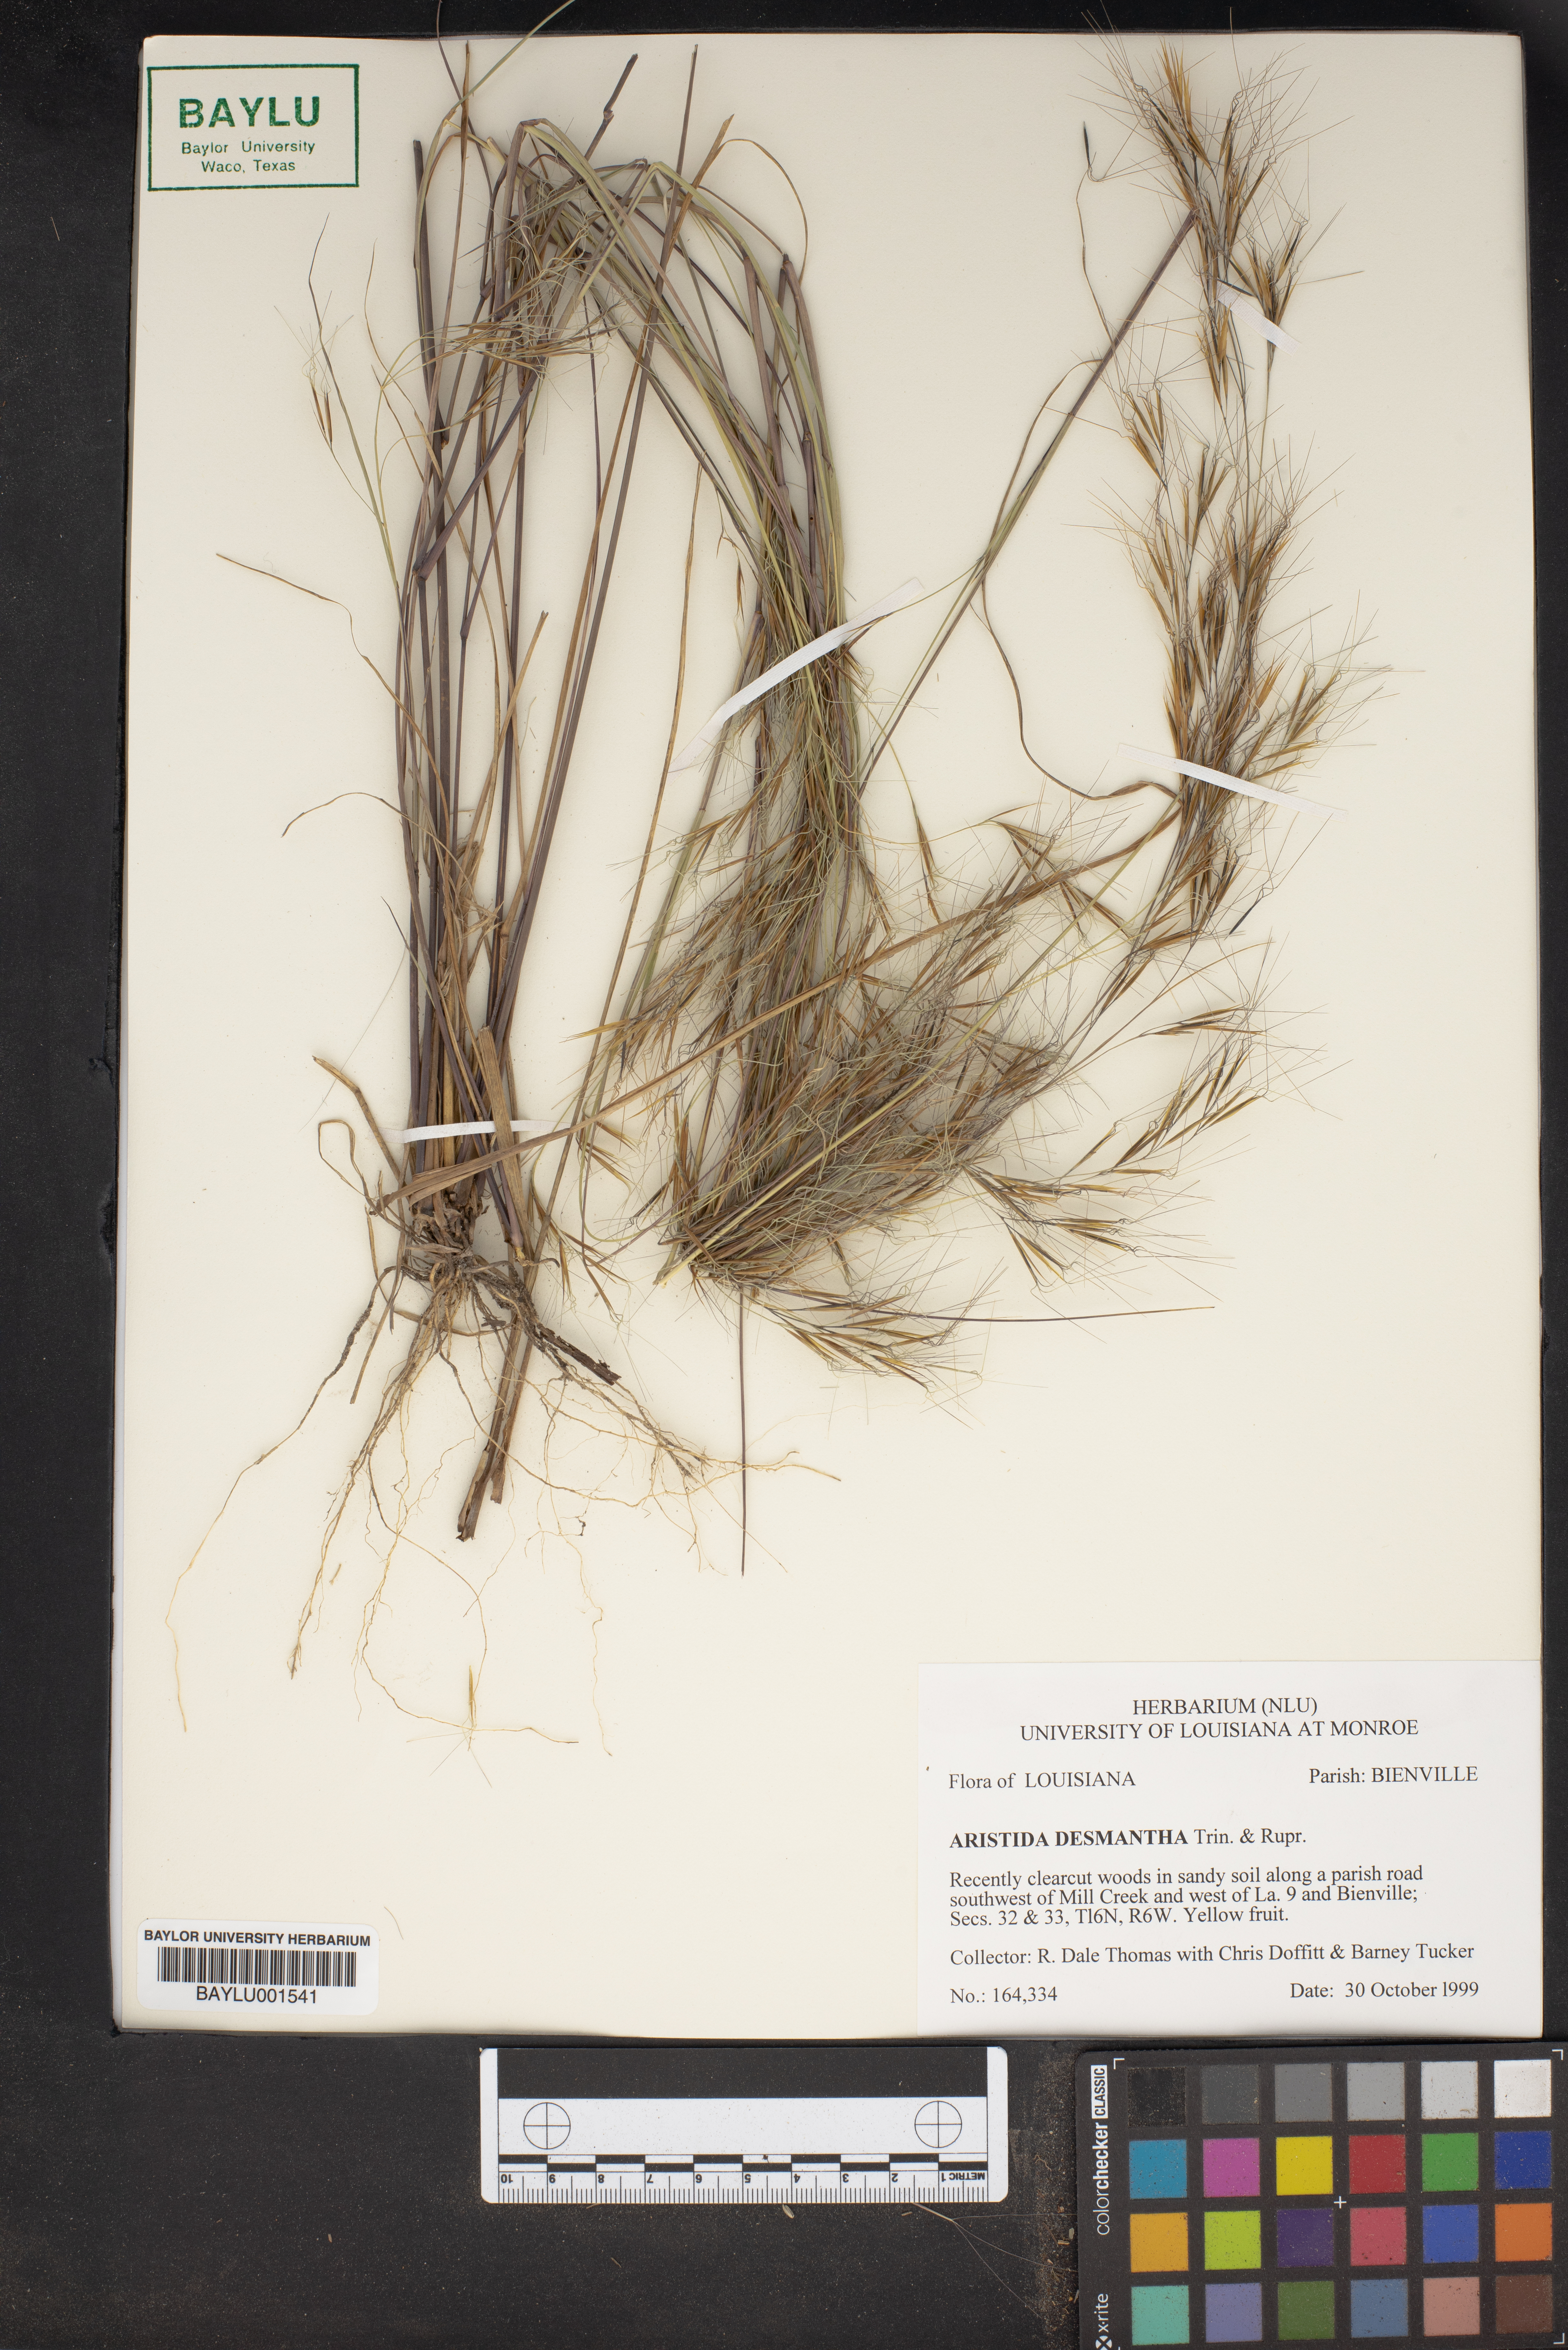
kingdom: Plantae
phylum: Tracheophyta
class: Liliopsida
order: Poales
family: Poaceae
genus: Aristida
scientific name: Aristida desmantha
